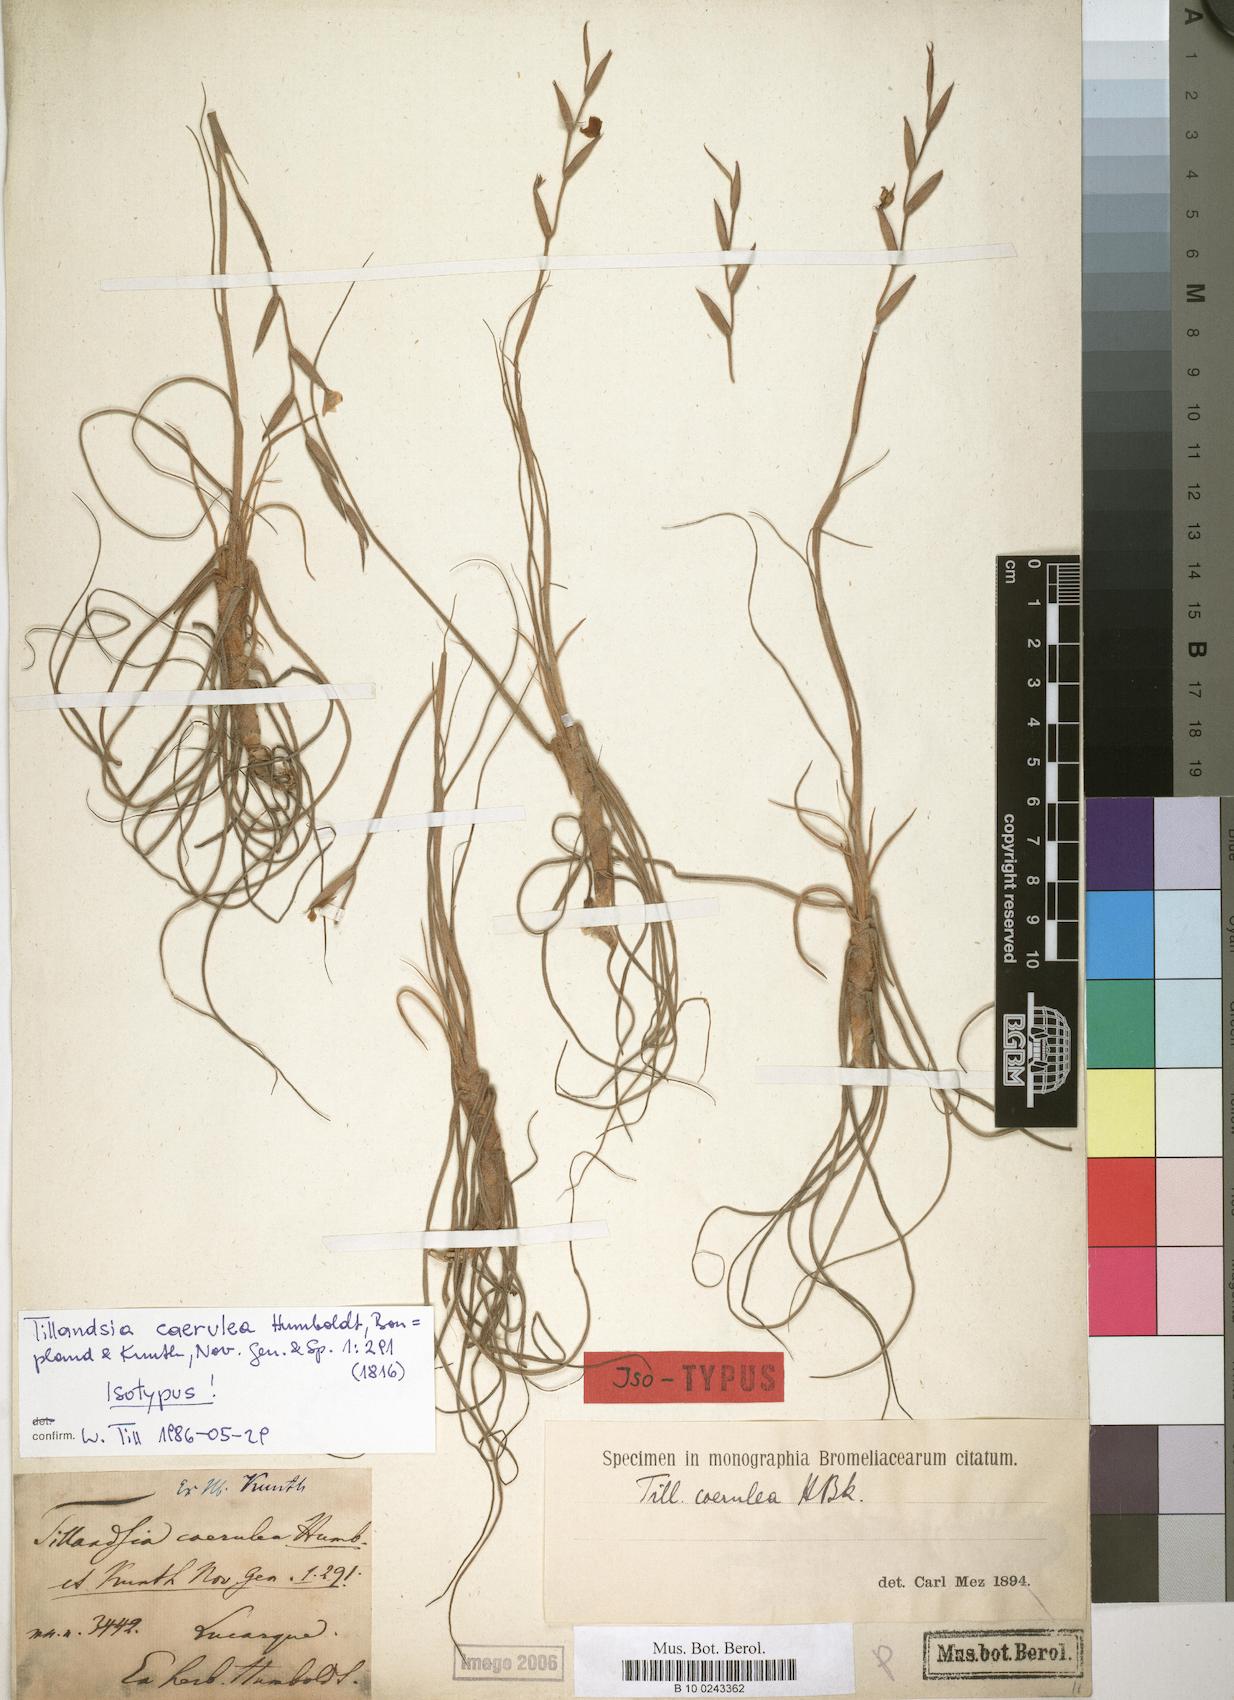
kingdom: Plantae
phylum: Tracheophyta
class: Liliopsida
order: Poales
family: Bromeliaceae
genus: Tillandsia
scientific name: Tillandsia caerulea
